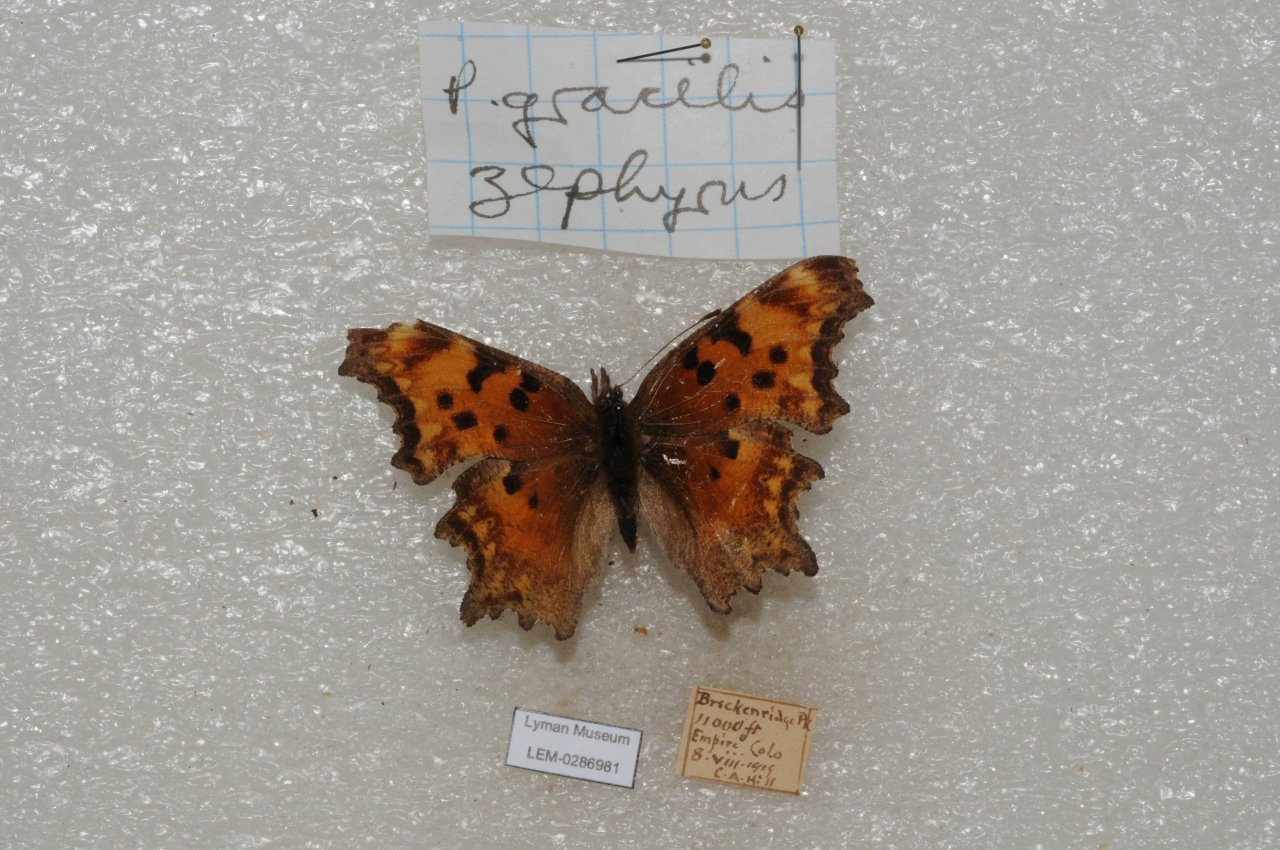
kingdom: Animalia
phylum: Arthropoda
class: Insecta
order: Lepidoptera
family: Nymphalidae
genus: Polygonia
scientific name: Polygonia gracilis
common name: Hoary Comma
